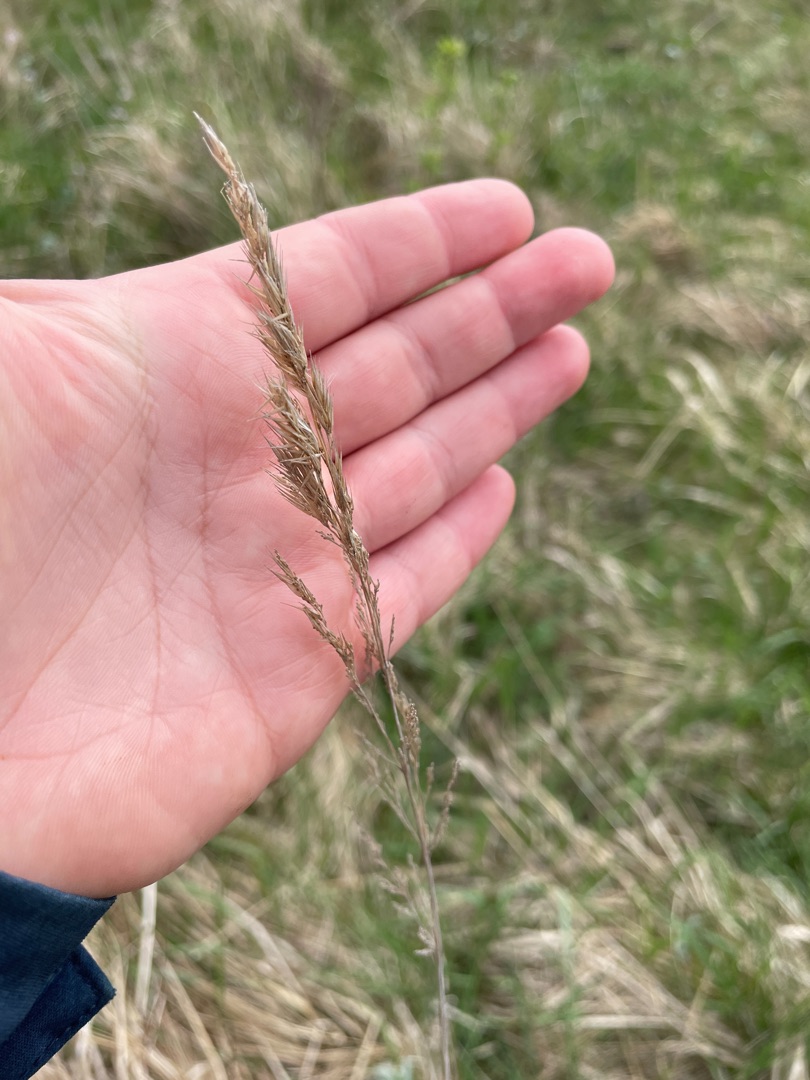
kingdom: Plantae
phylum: Tracheophyta
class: Liliopsida
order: Poales
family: Poaceae
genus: Calamagrostis
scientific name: Calamagrostis epigejos
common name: Bjerg-rørhvene
